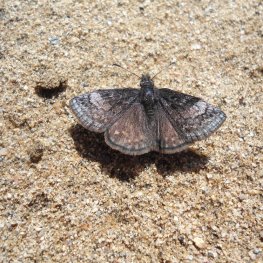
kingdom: Animalia
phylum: Arthropoda
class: Insecta
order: Lepidoptera
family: Hesperiidae
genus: Erynnis
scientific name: Erynnis icelus
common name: Dreamy Duskywing
